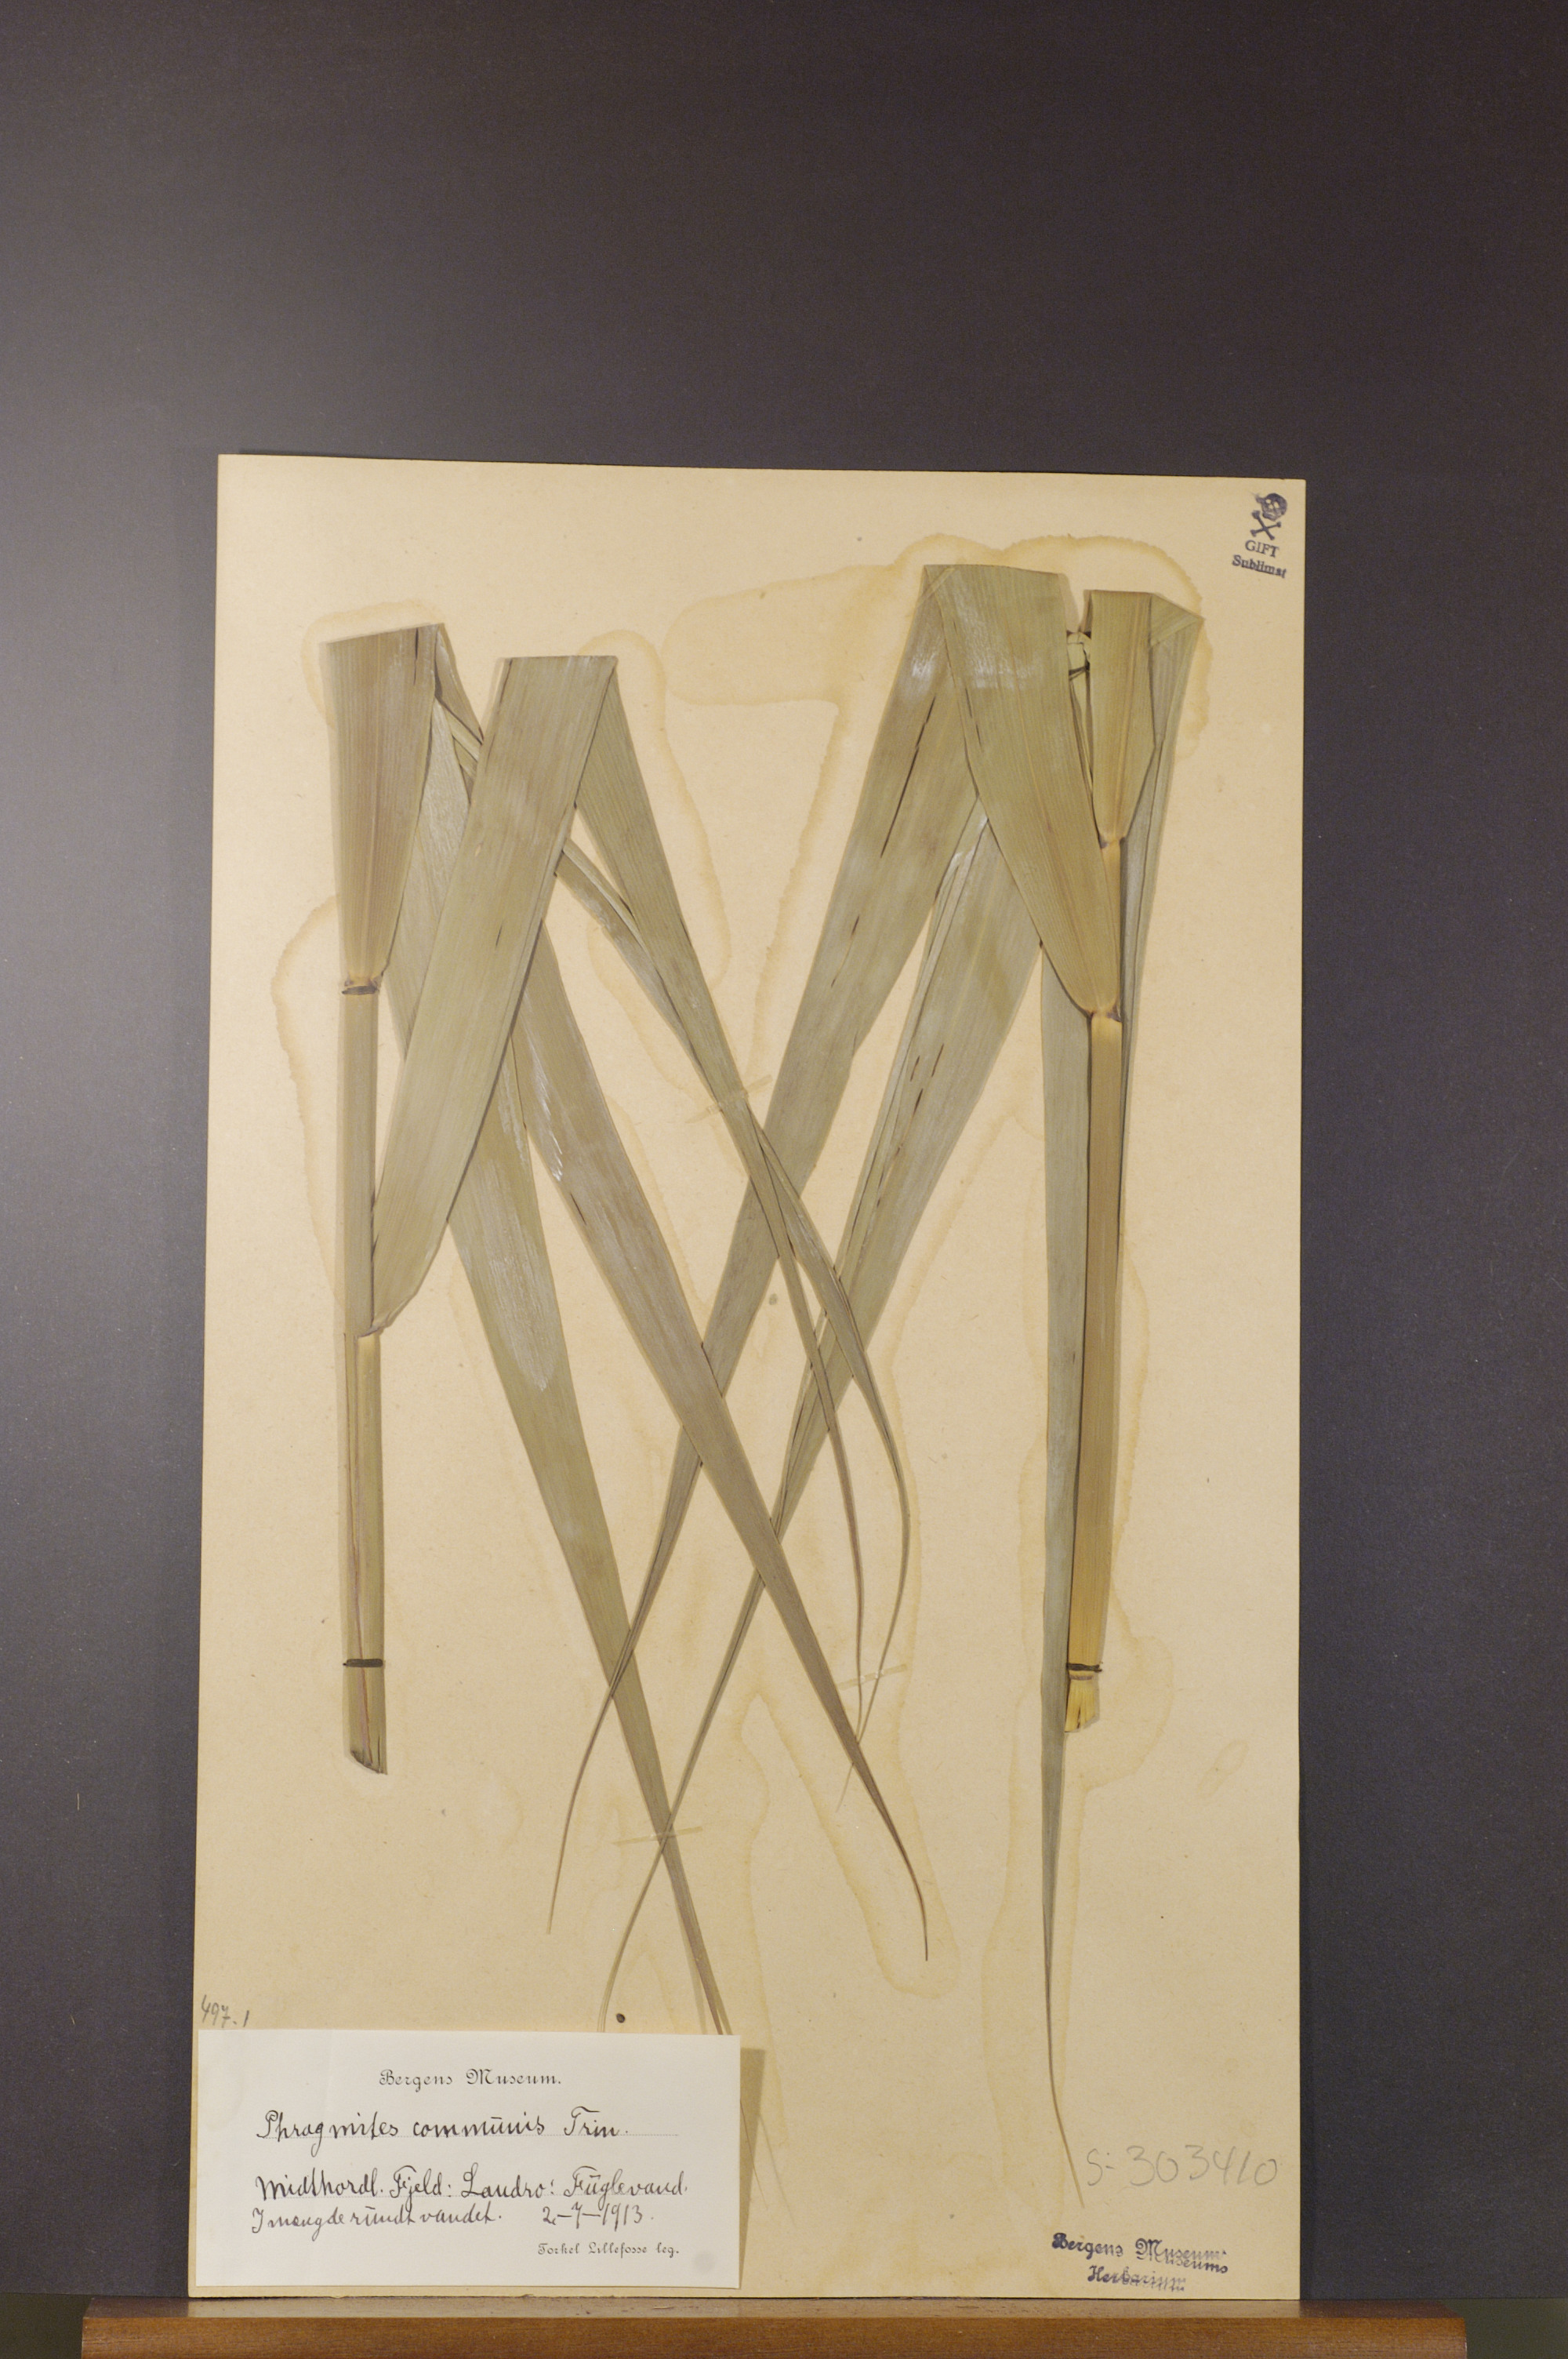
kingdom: Plantae
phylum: Tracheophyta
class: Liliopsida
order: Poales
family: Poaceae
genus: Phragmites
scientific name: Phragmites australis
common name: Common reed
